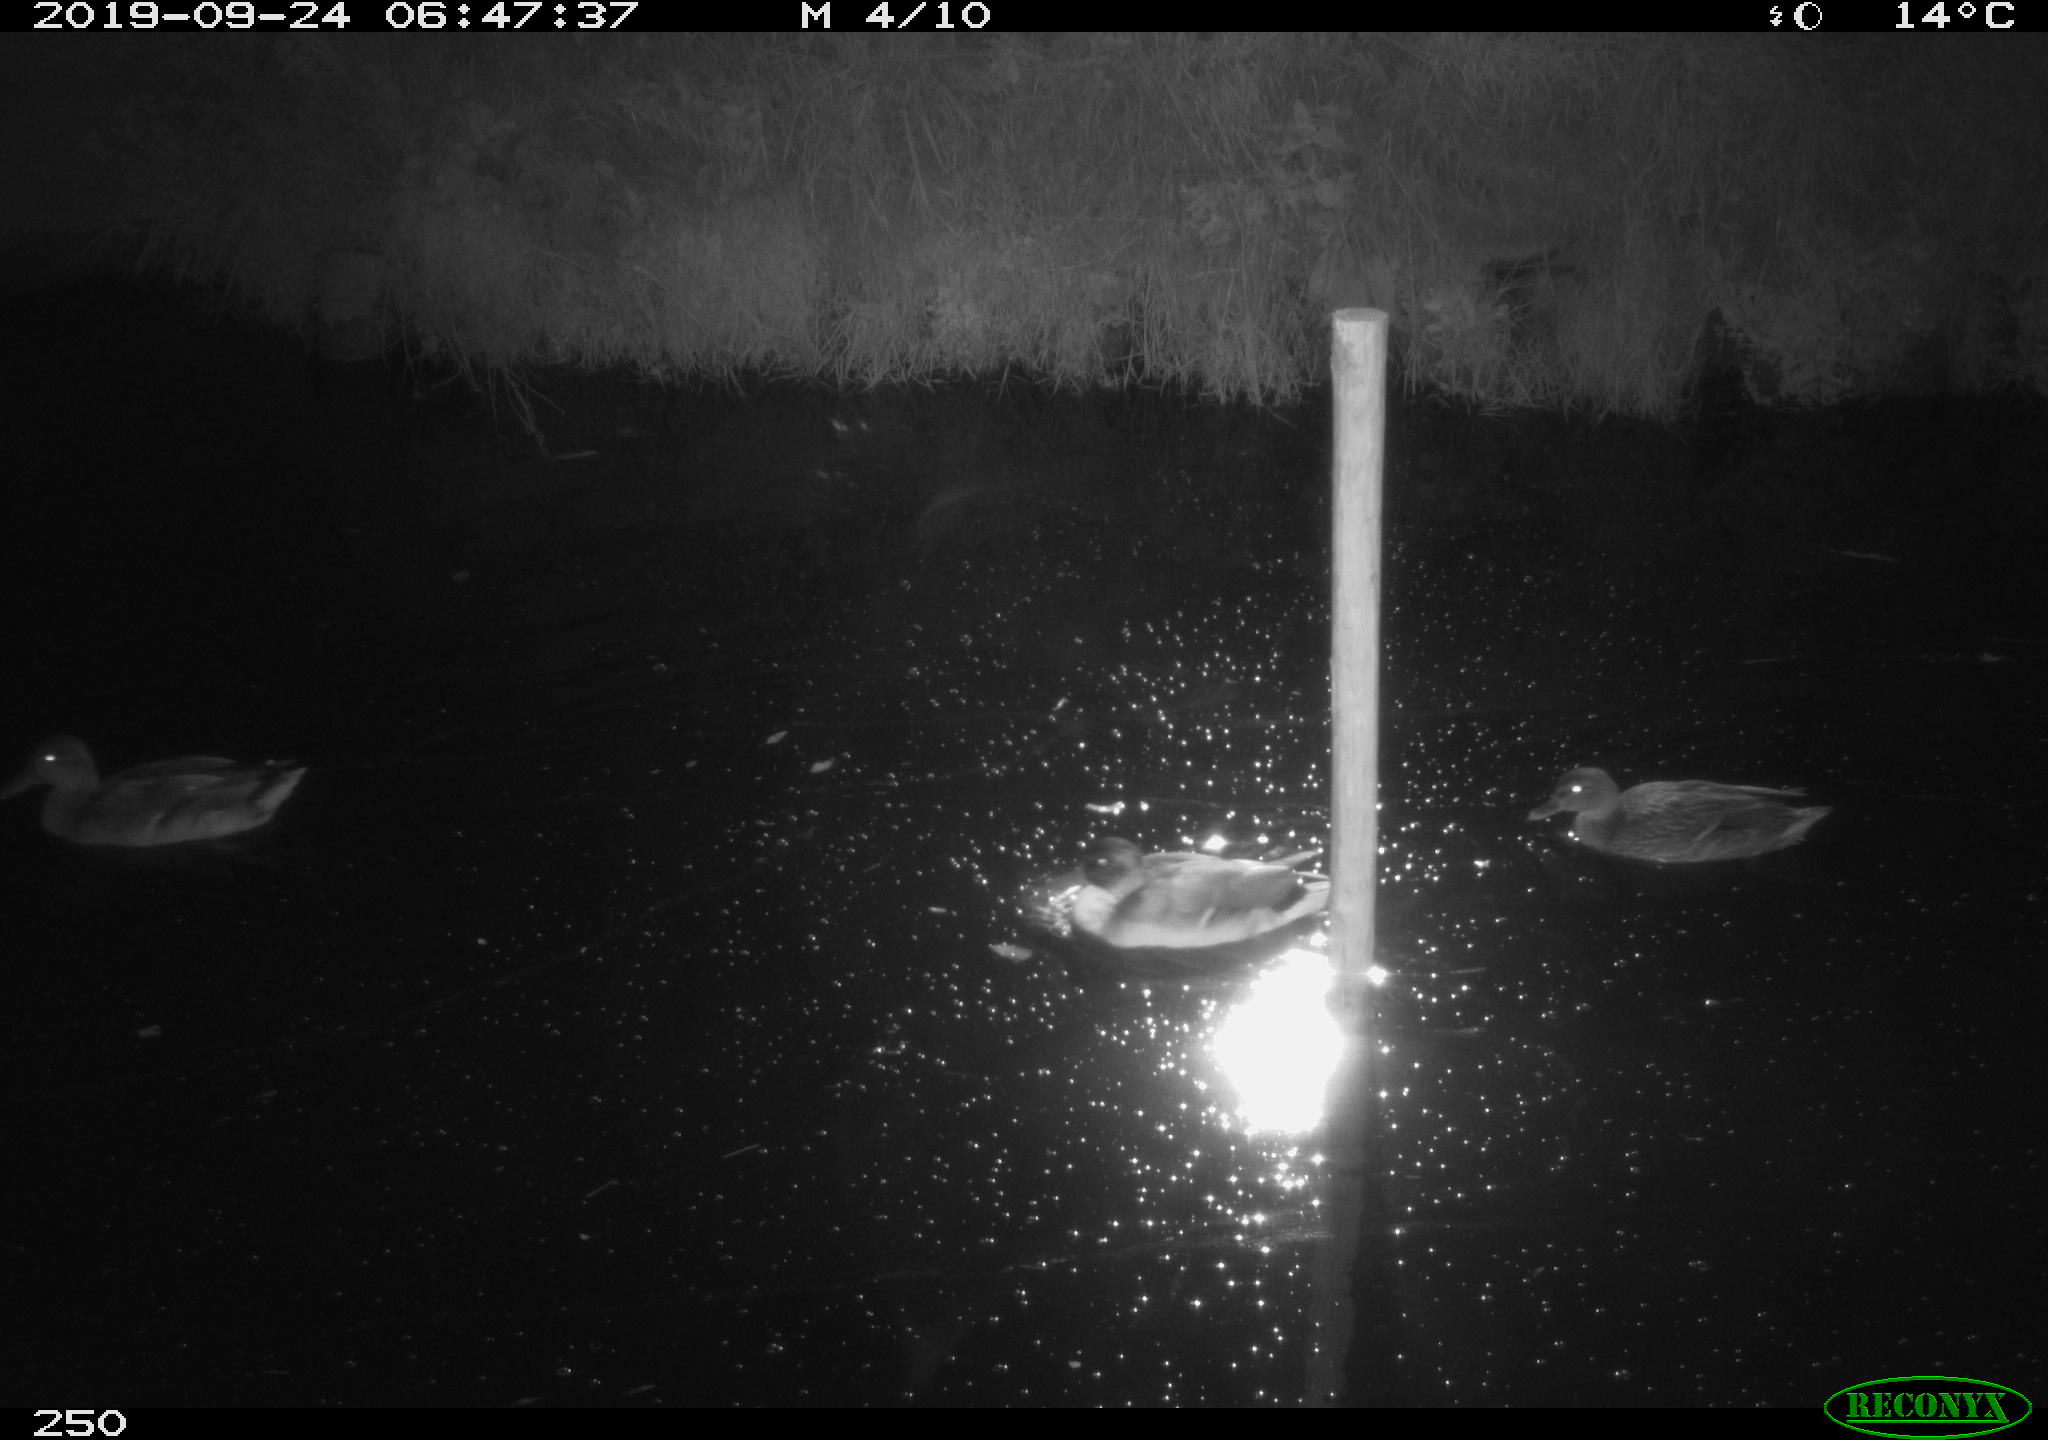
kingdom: Animalia
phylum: Chordata
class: Aves
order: Anseriformes
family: Anatidae
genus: Anas
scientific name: Anas platyrhynchos
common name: Mallard
